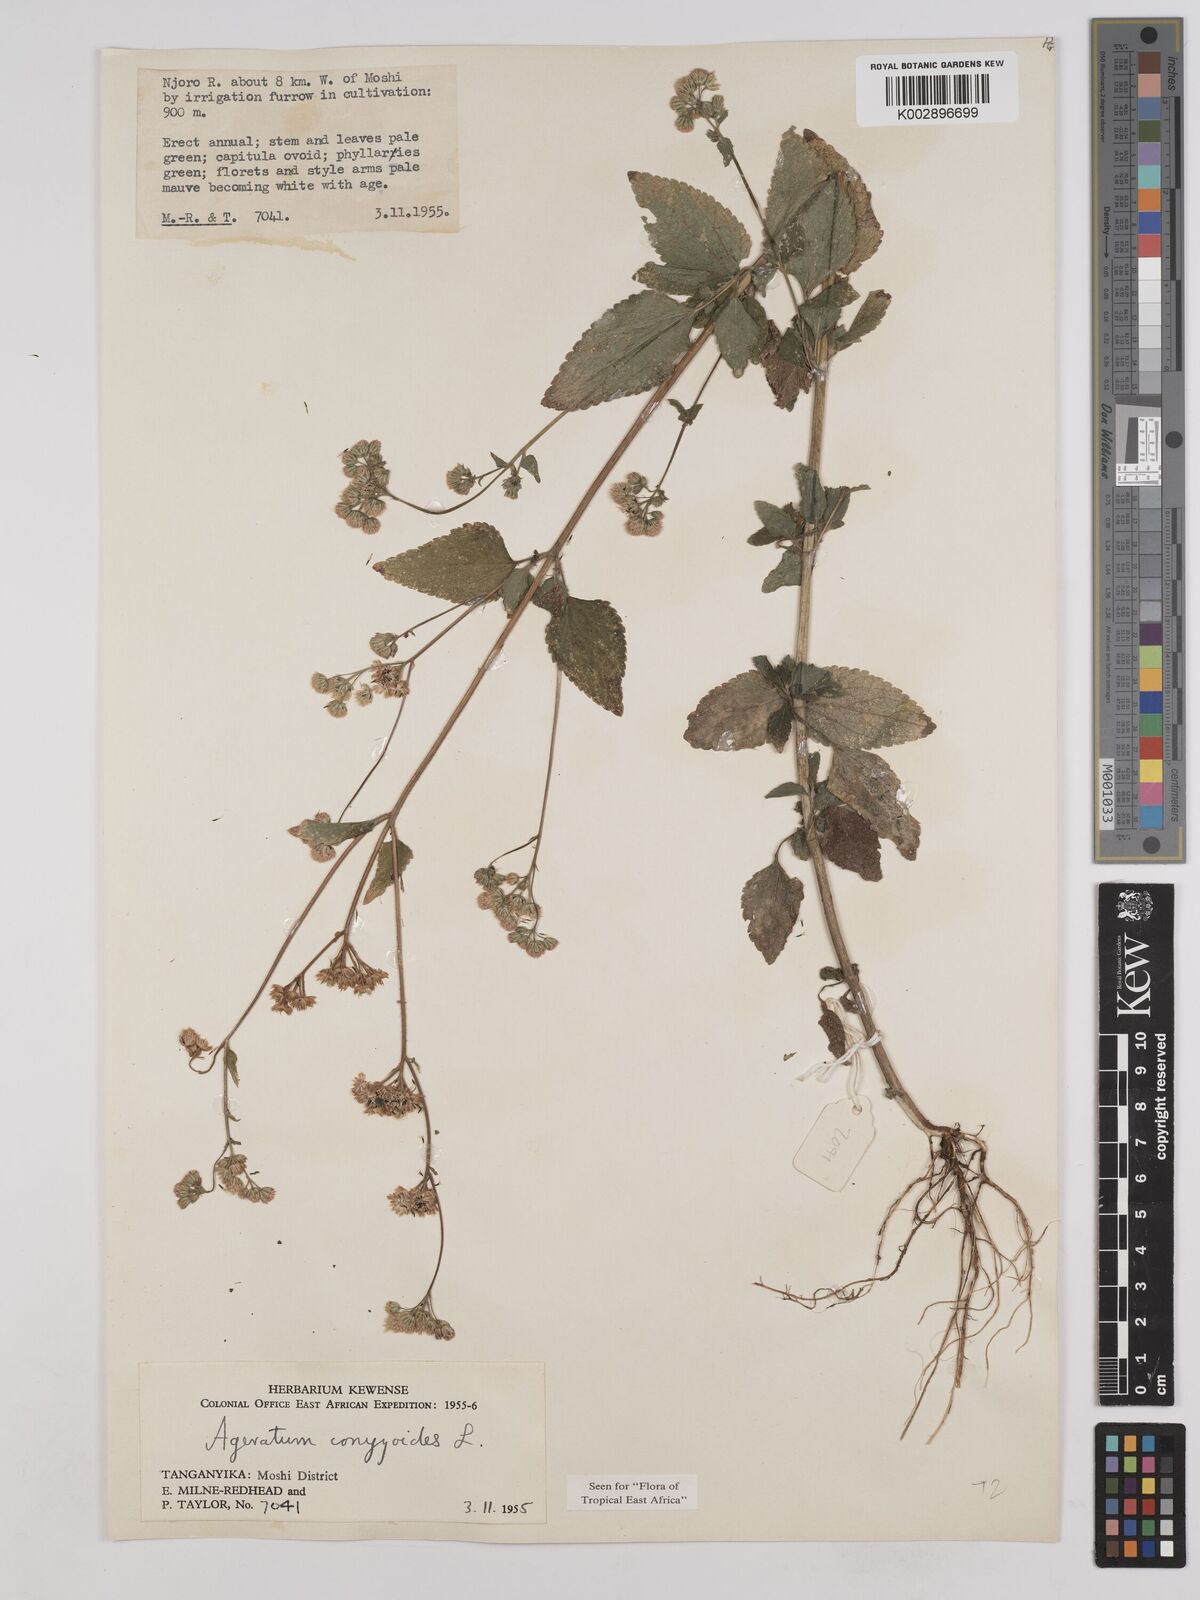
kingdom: Plantae
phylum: Tracheophyta
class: Magnoliopsida
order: Asterales
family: Asteraceae
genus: Ageratum
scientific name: Ageratum conyzoides
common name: Tropical whiteweed
